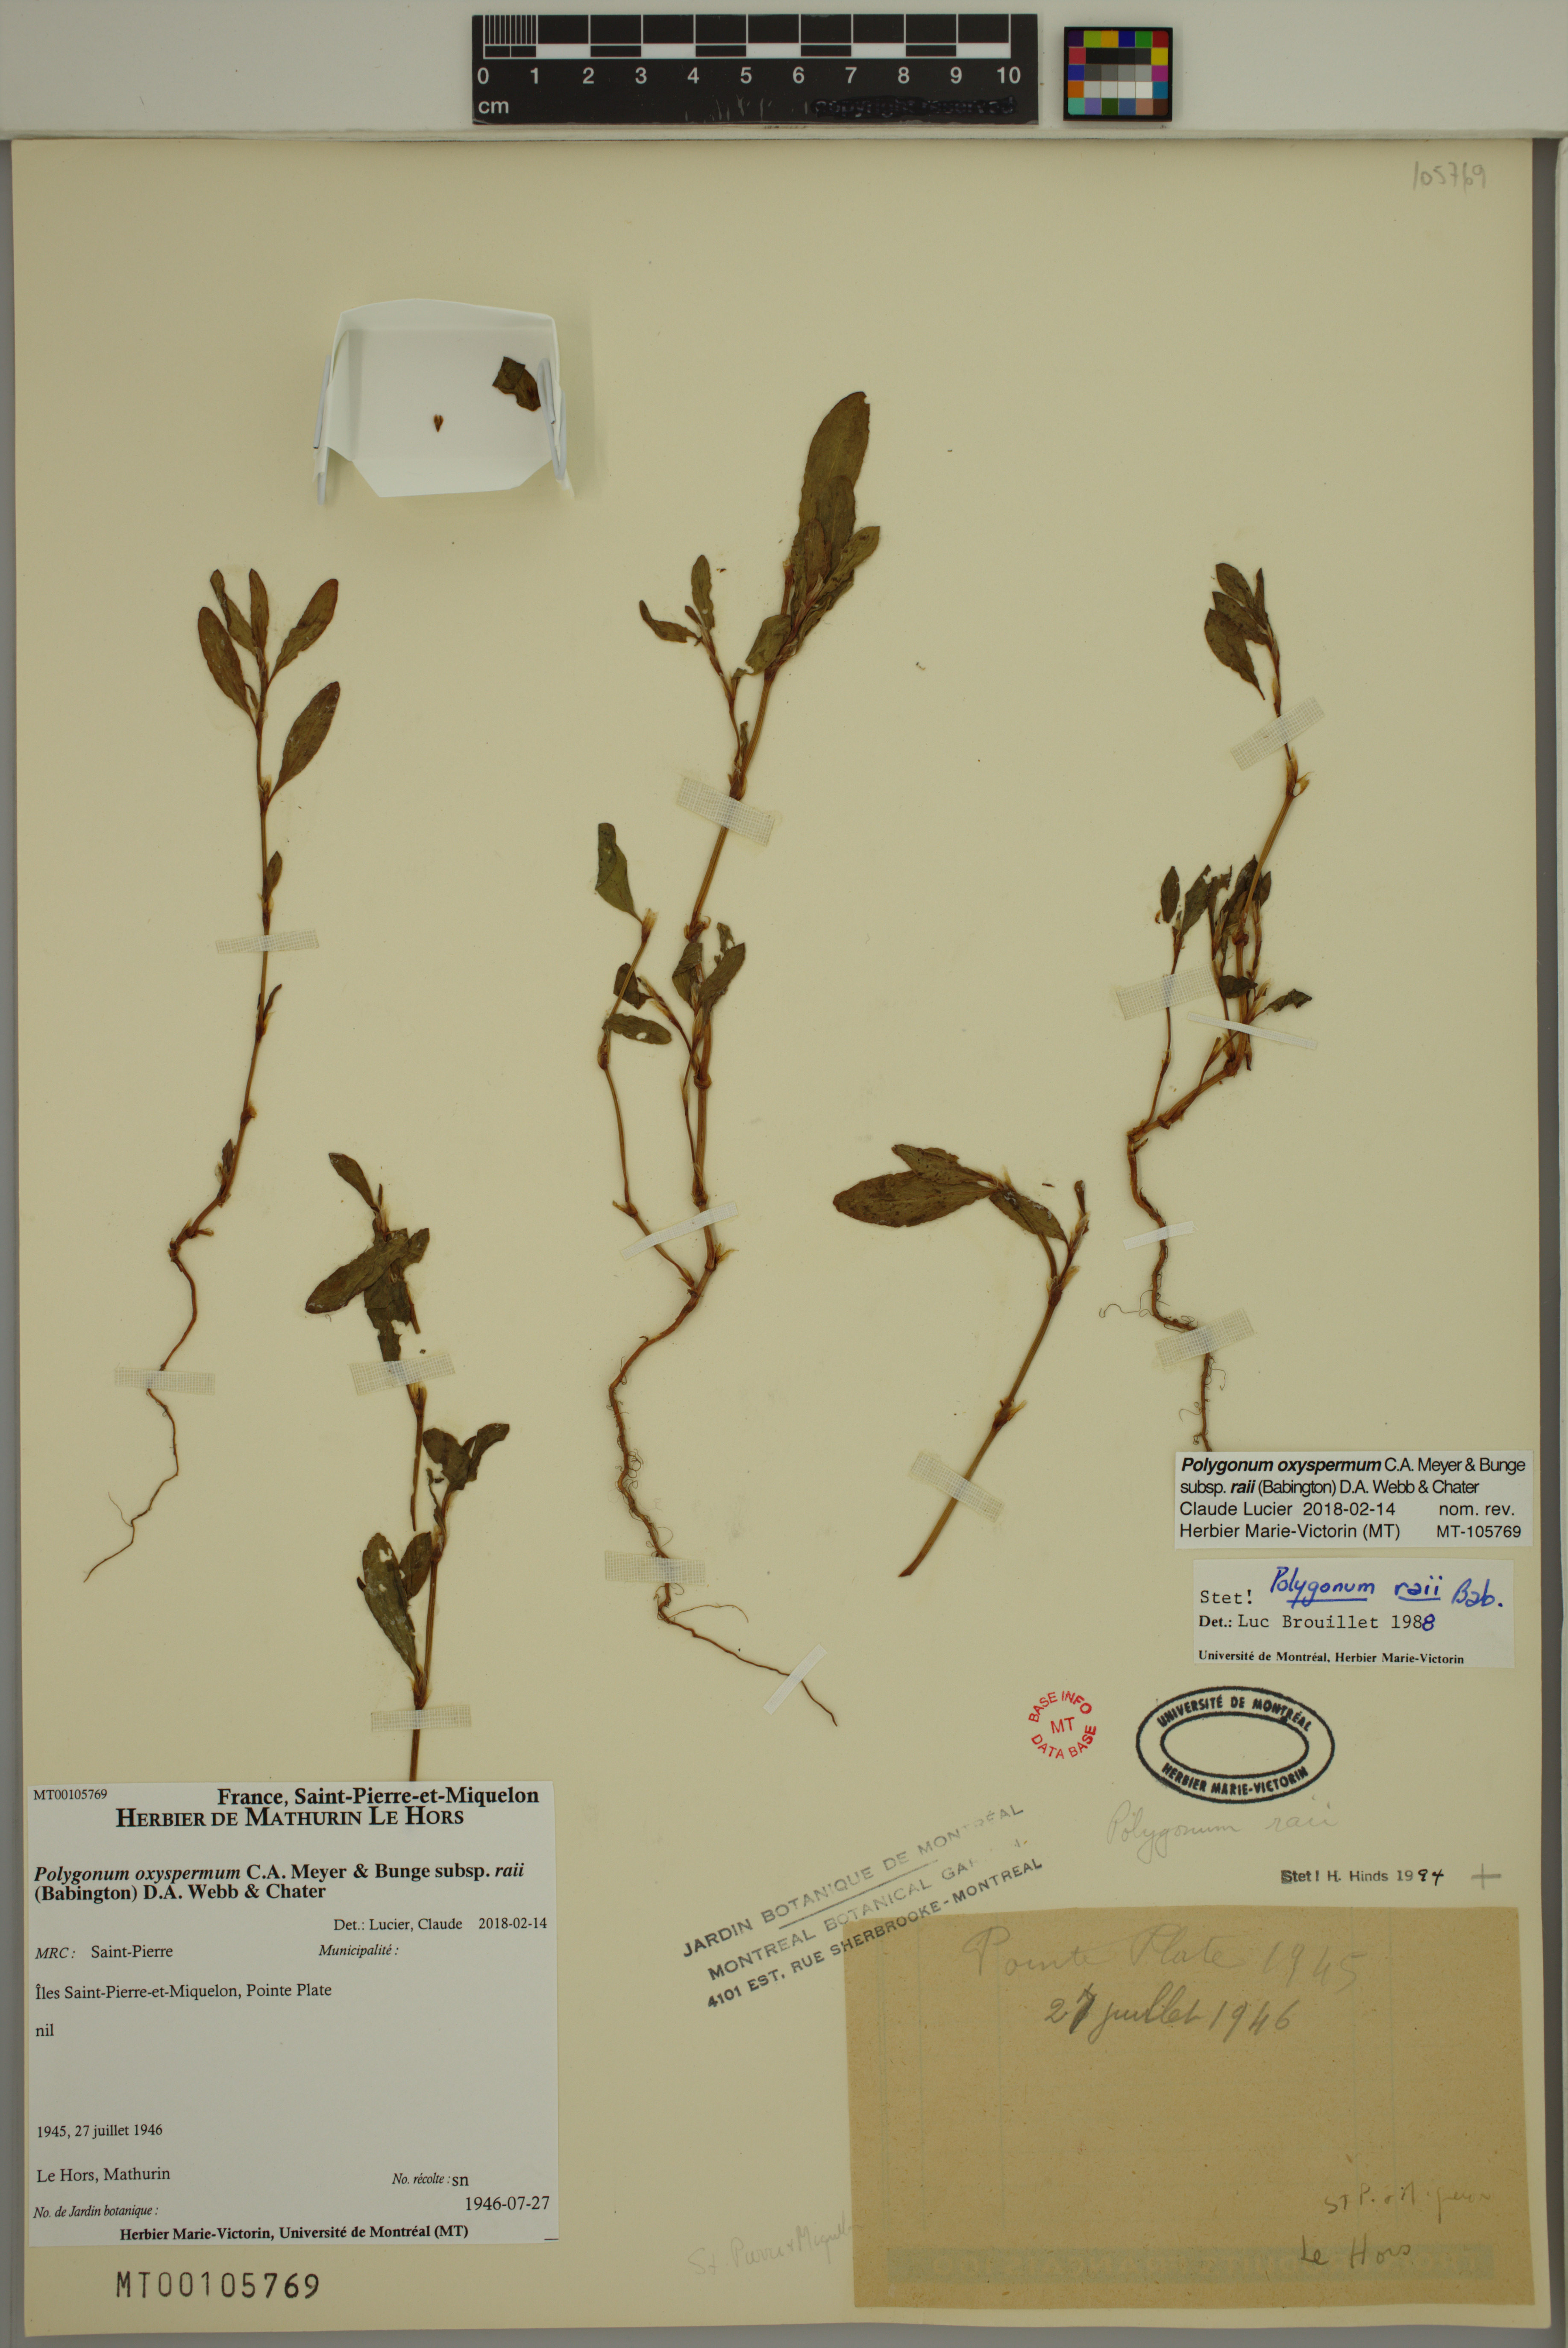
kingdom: Plantae
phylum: Tracheophyta
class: Magnoliopsida
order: Caryophyllales
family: Polygonaceae
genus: Polygonum
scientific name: Polygonum raii
